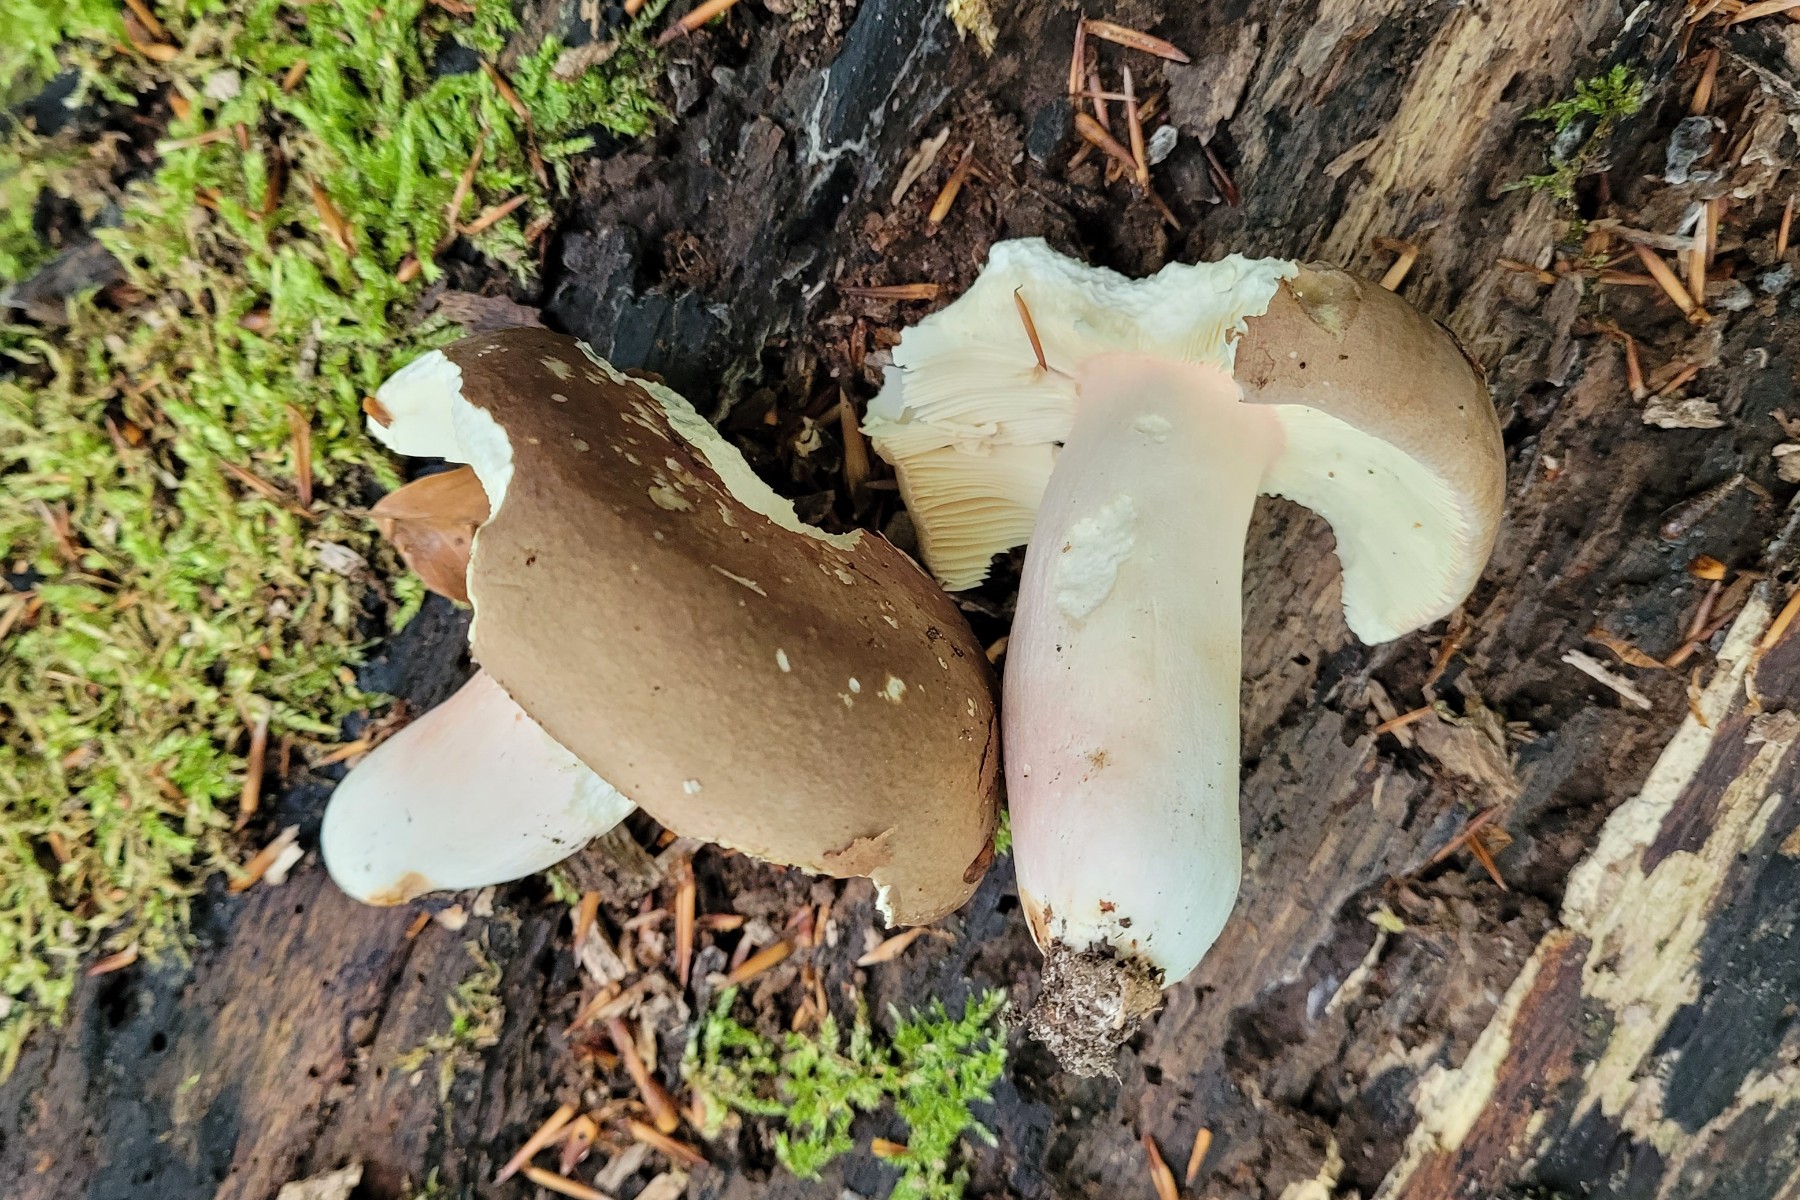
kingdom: Fungi
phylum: Basidiomycota
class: Agaricomycetes
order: Russulales
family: Russulaceae
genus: Russula
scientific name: Russula olivacea
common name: stor skørhat
